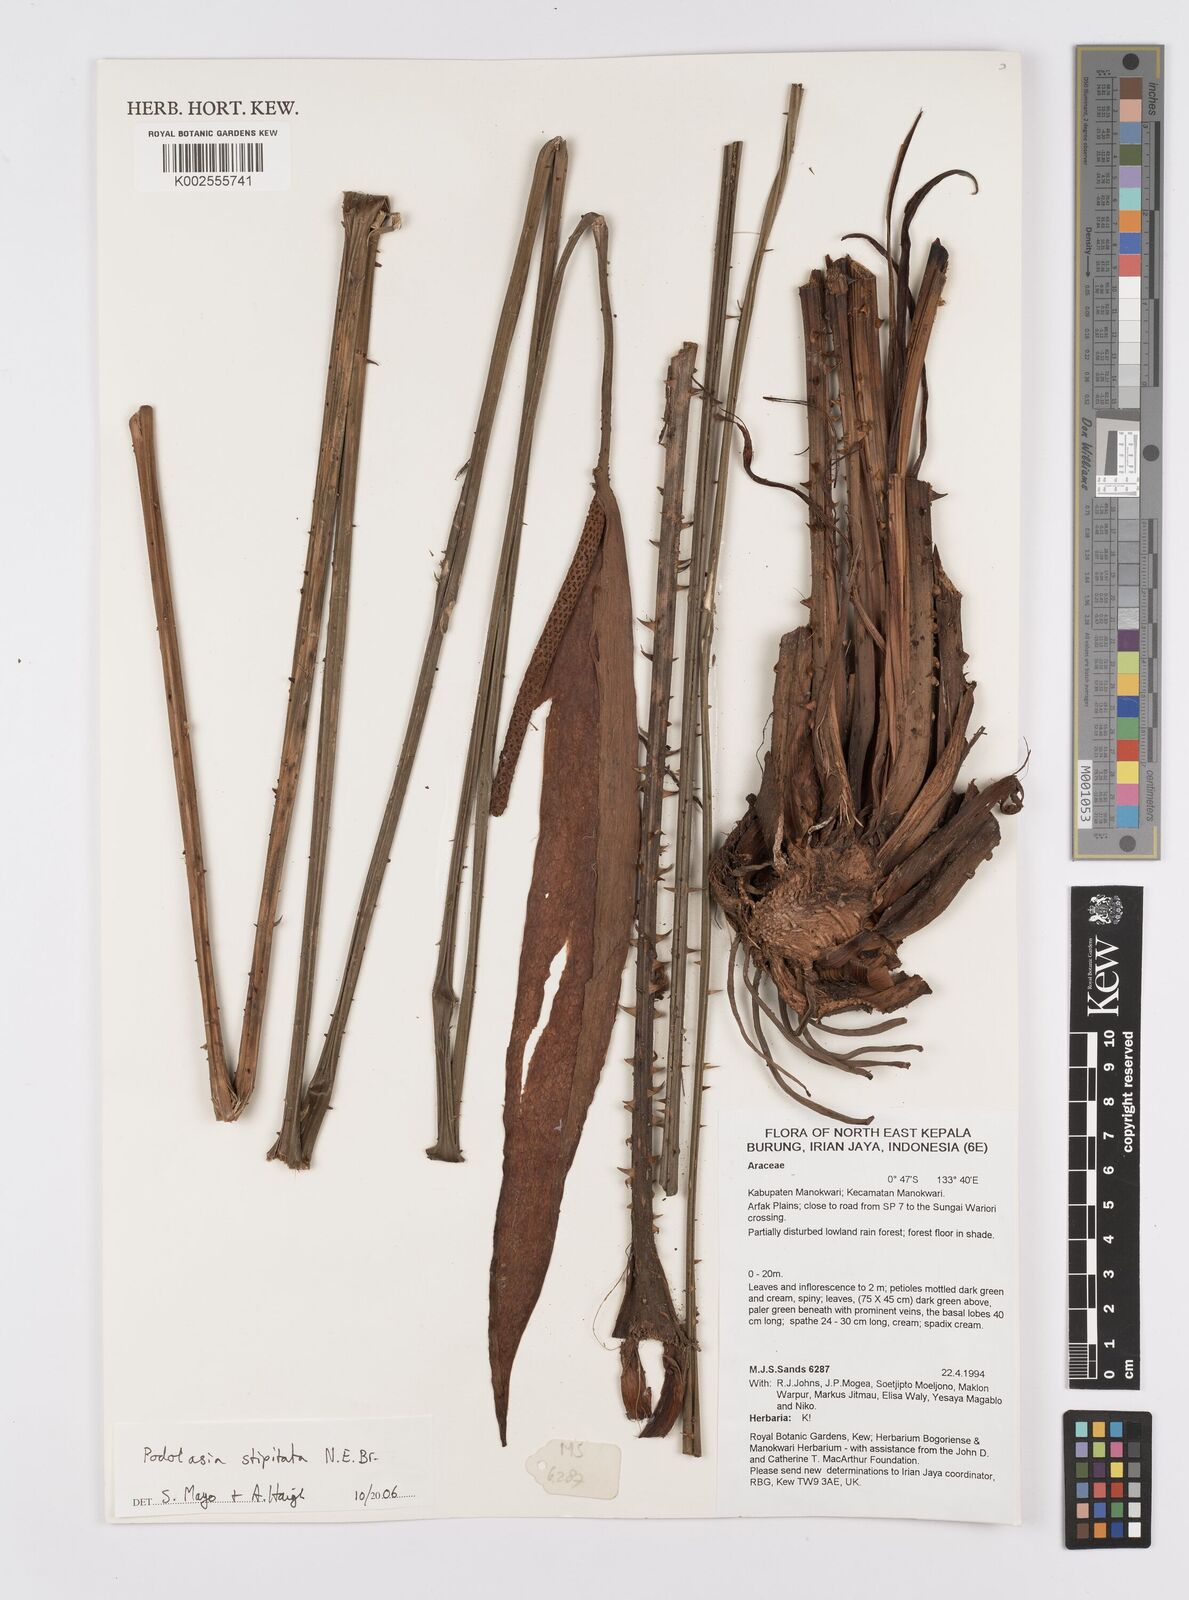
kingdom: Plantae
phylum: Tracheophyta
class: Liliopsida
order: Alismatales
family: Araceae
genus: Podolasia
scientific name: Podolasia stipitata
